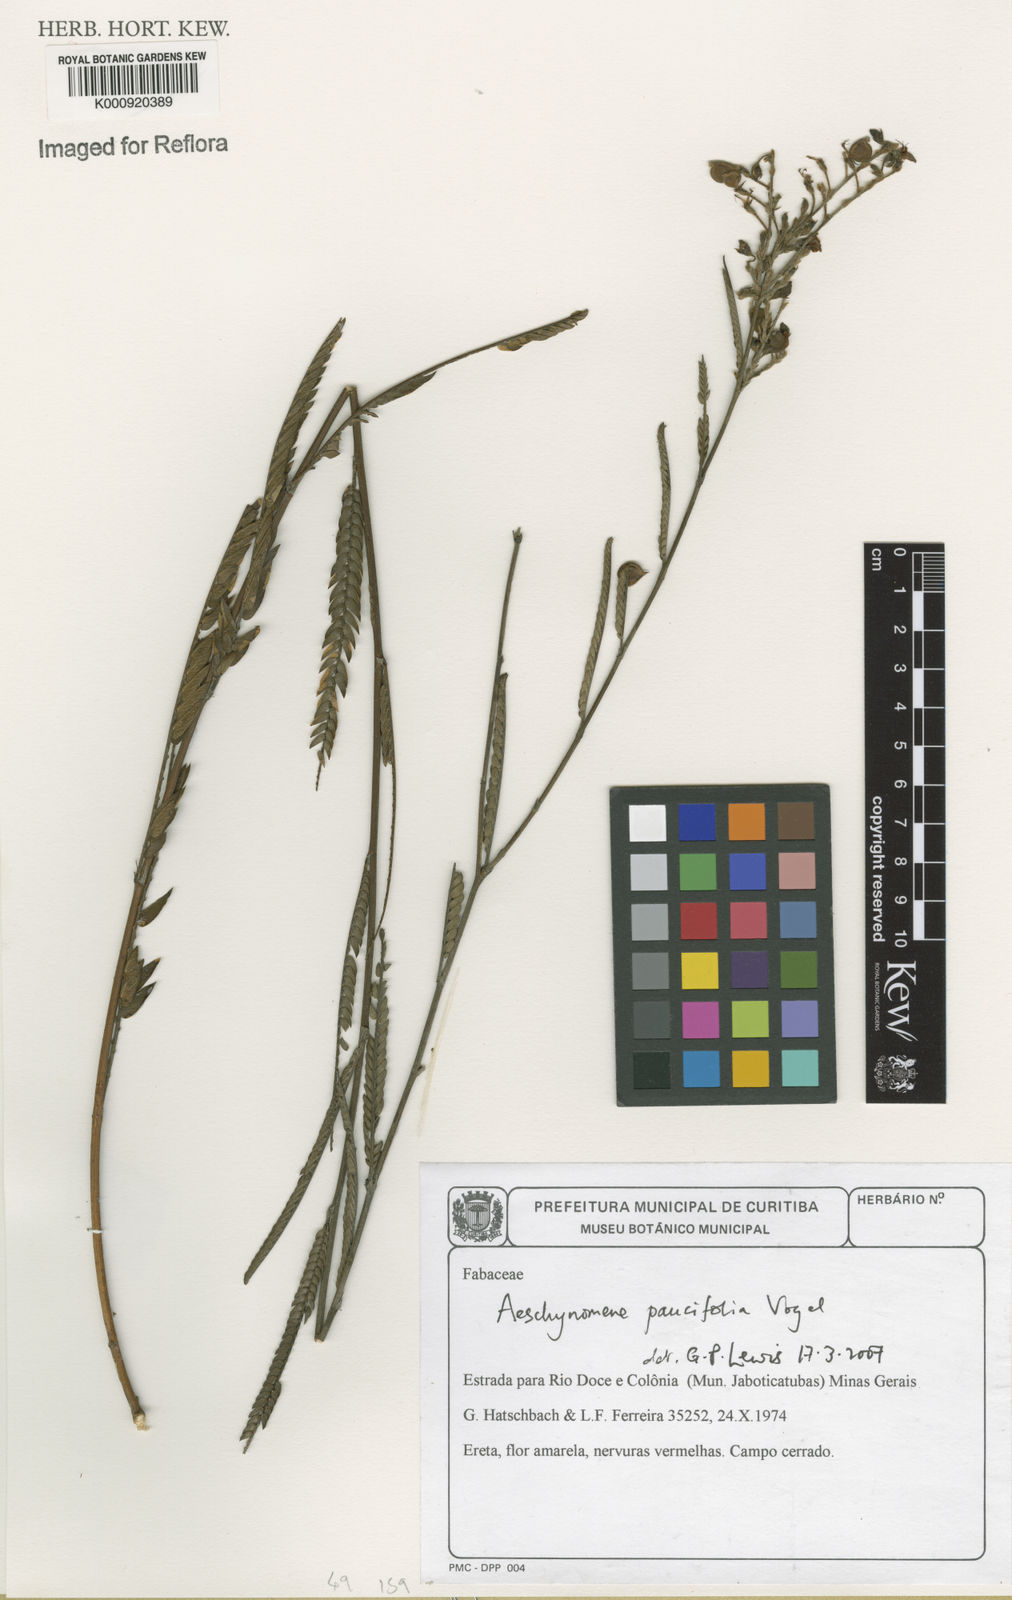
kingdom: Plantae
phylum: Tracheophyta
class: Magnoliopsida
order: Fabales
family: Fabaceae
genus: Ctenodon
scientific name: Ctenodon paucifolius
